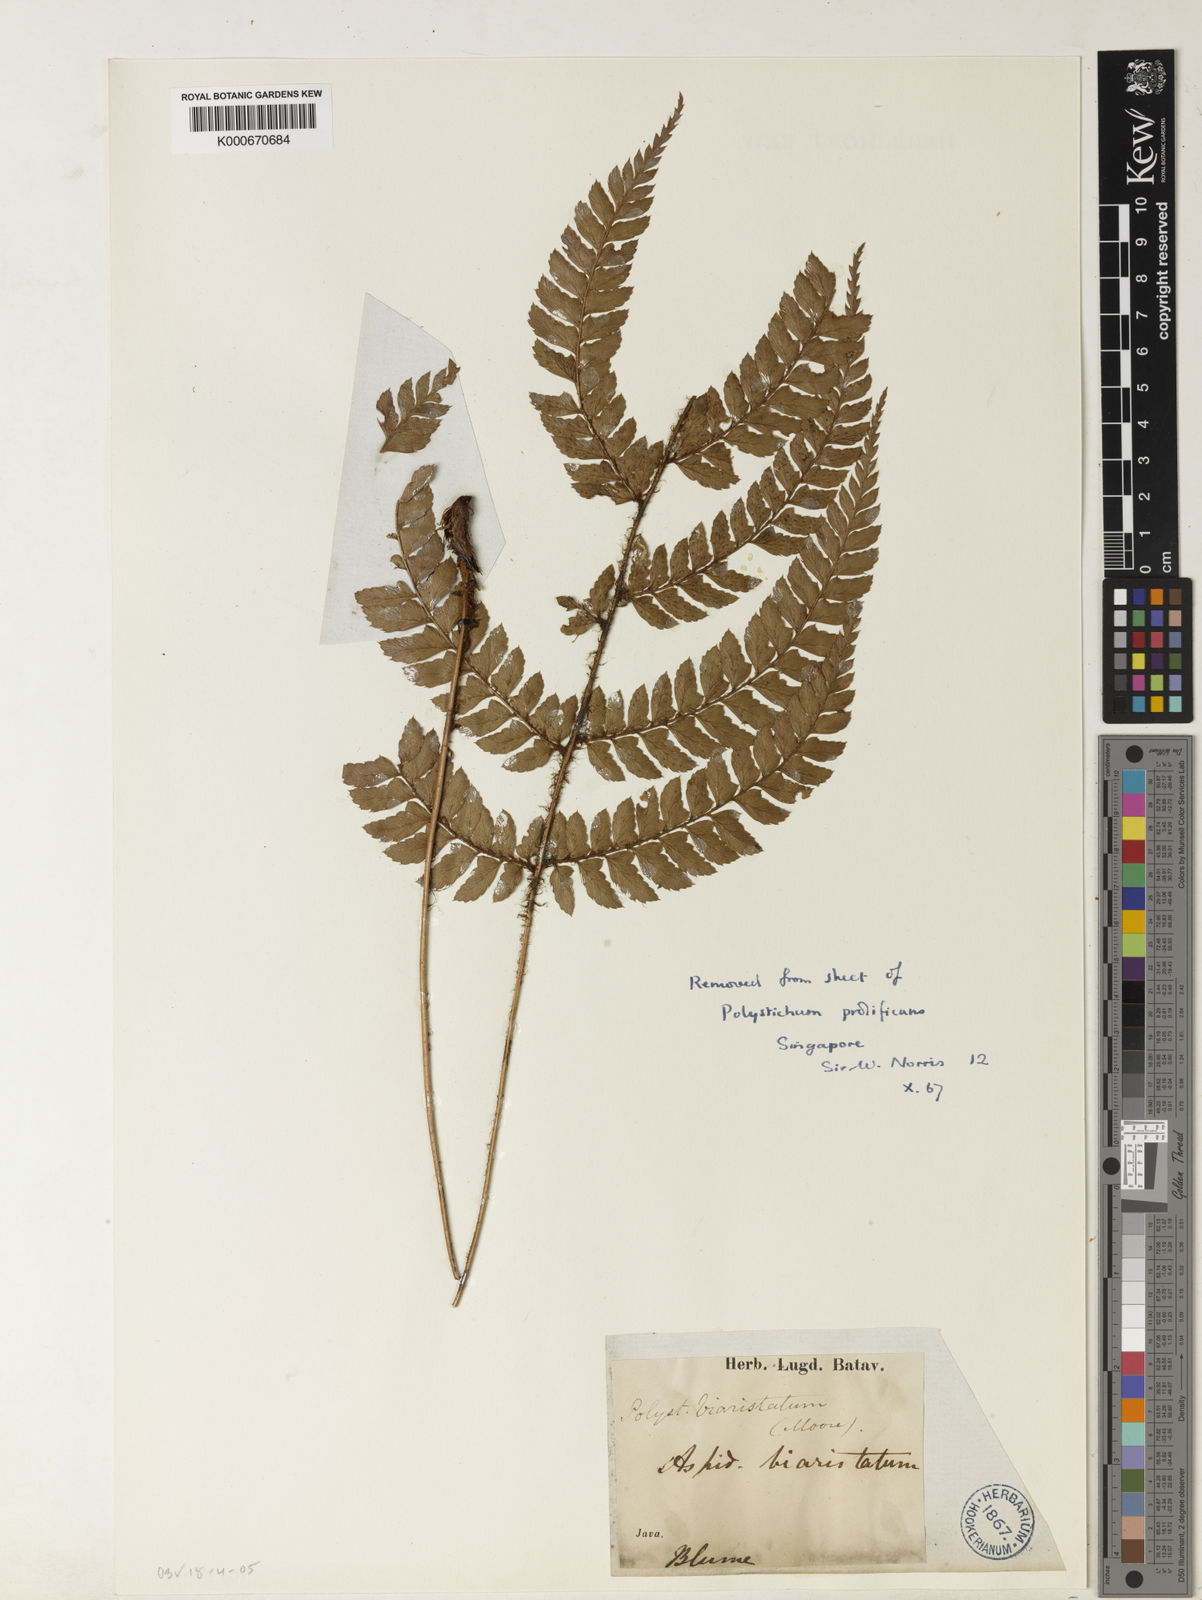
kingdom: Plantae
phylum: Tracheophyta
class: Polypodiopsida
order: Polypodiales
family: Dryopteridaceae
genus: Polystichum
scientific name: Polystichum biaristatum
